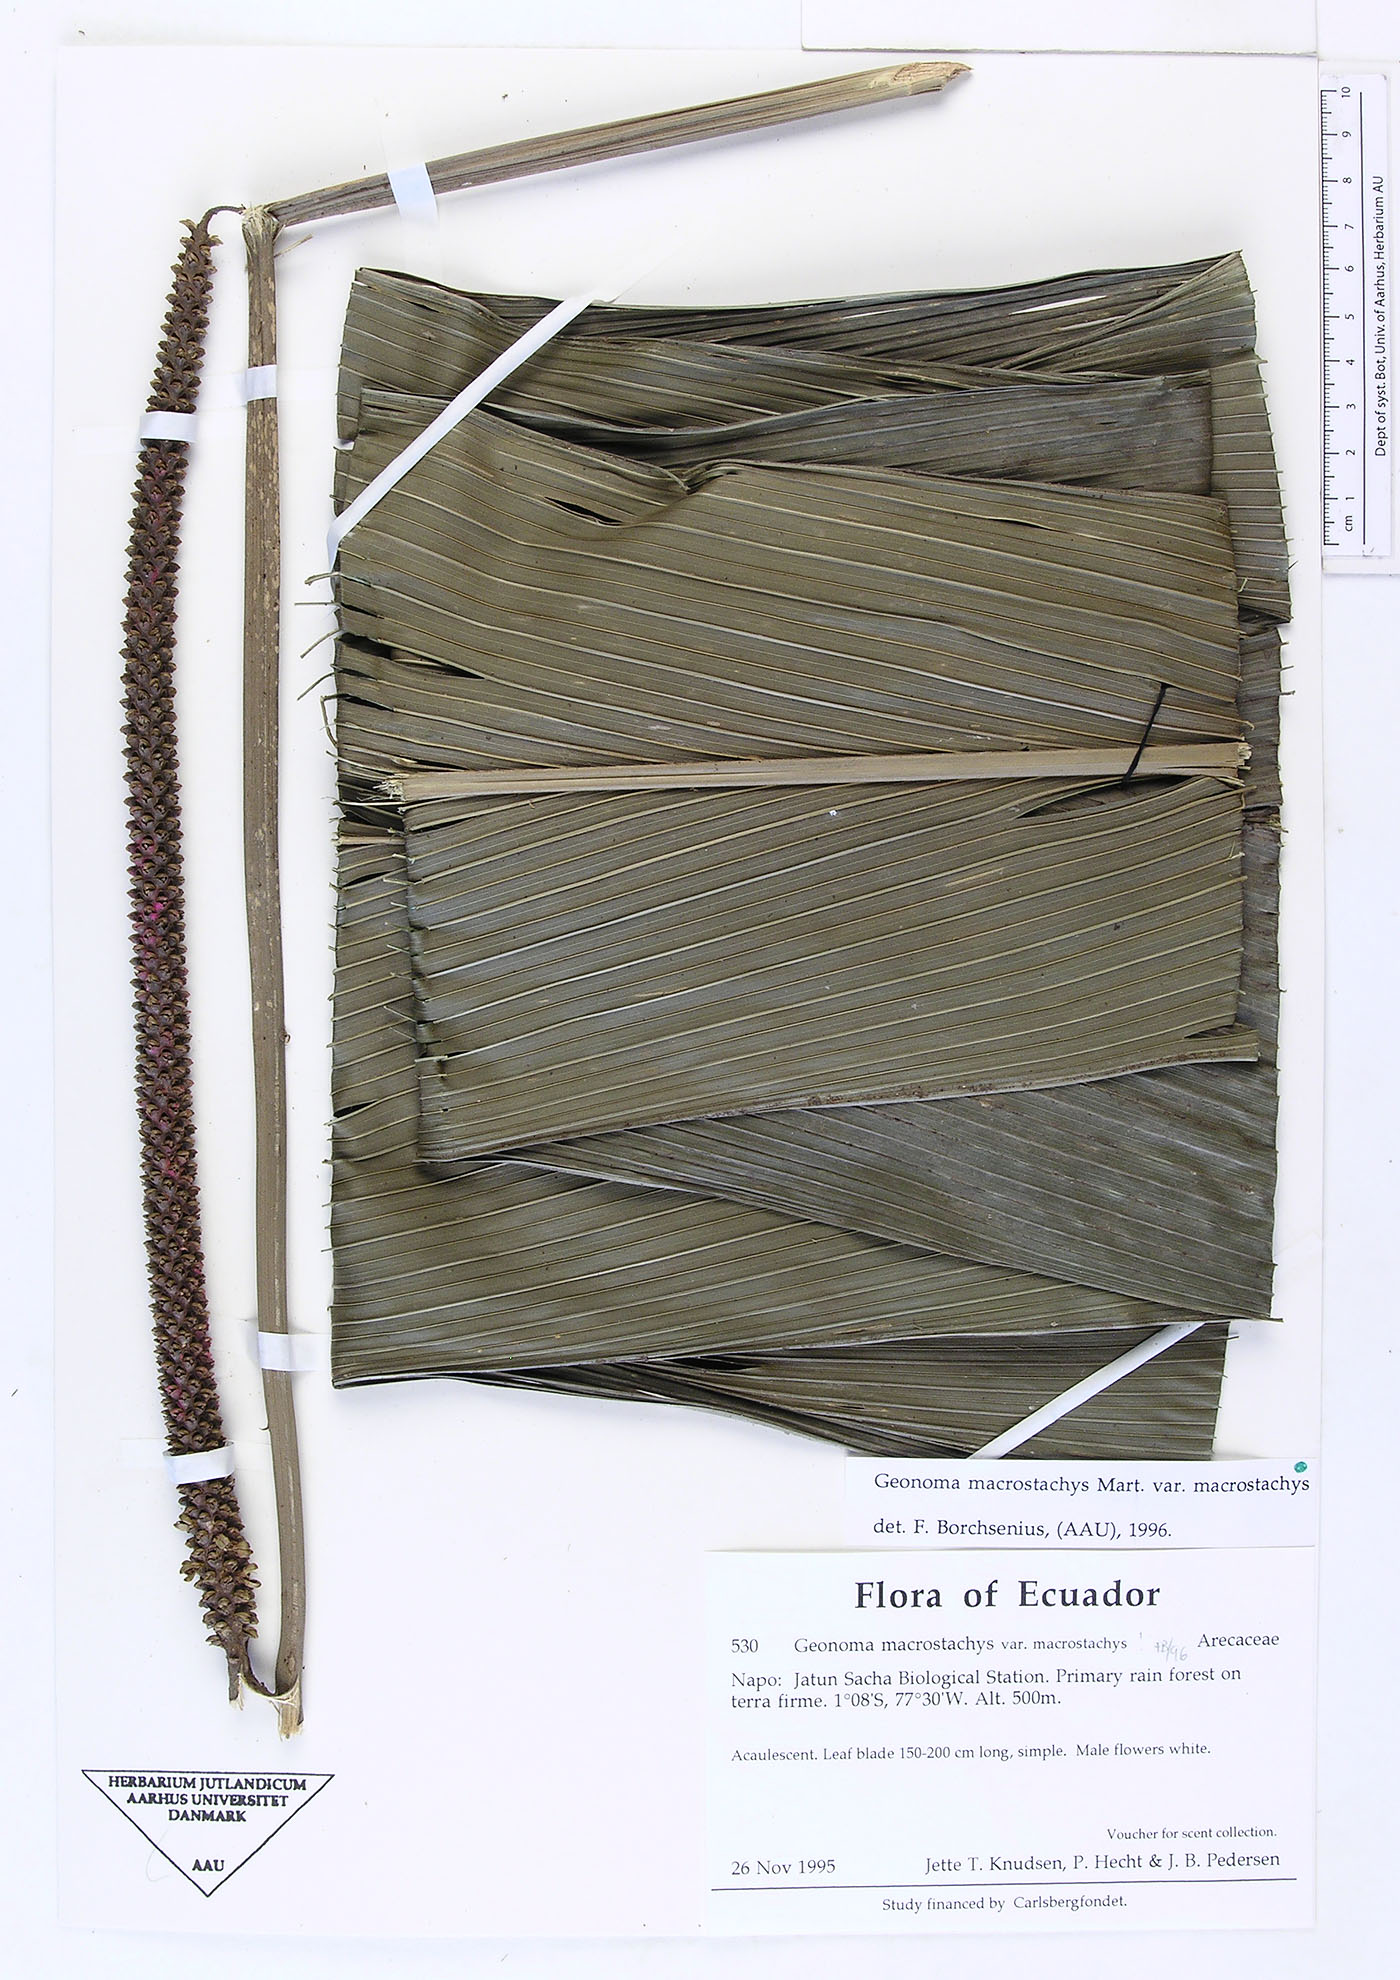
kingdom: Plantae
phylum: Tracheophyta
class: Liliopsida
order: Arecales
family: Arecaceae
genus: Geonoma
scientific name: Geonoma macrostachys
